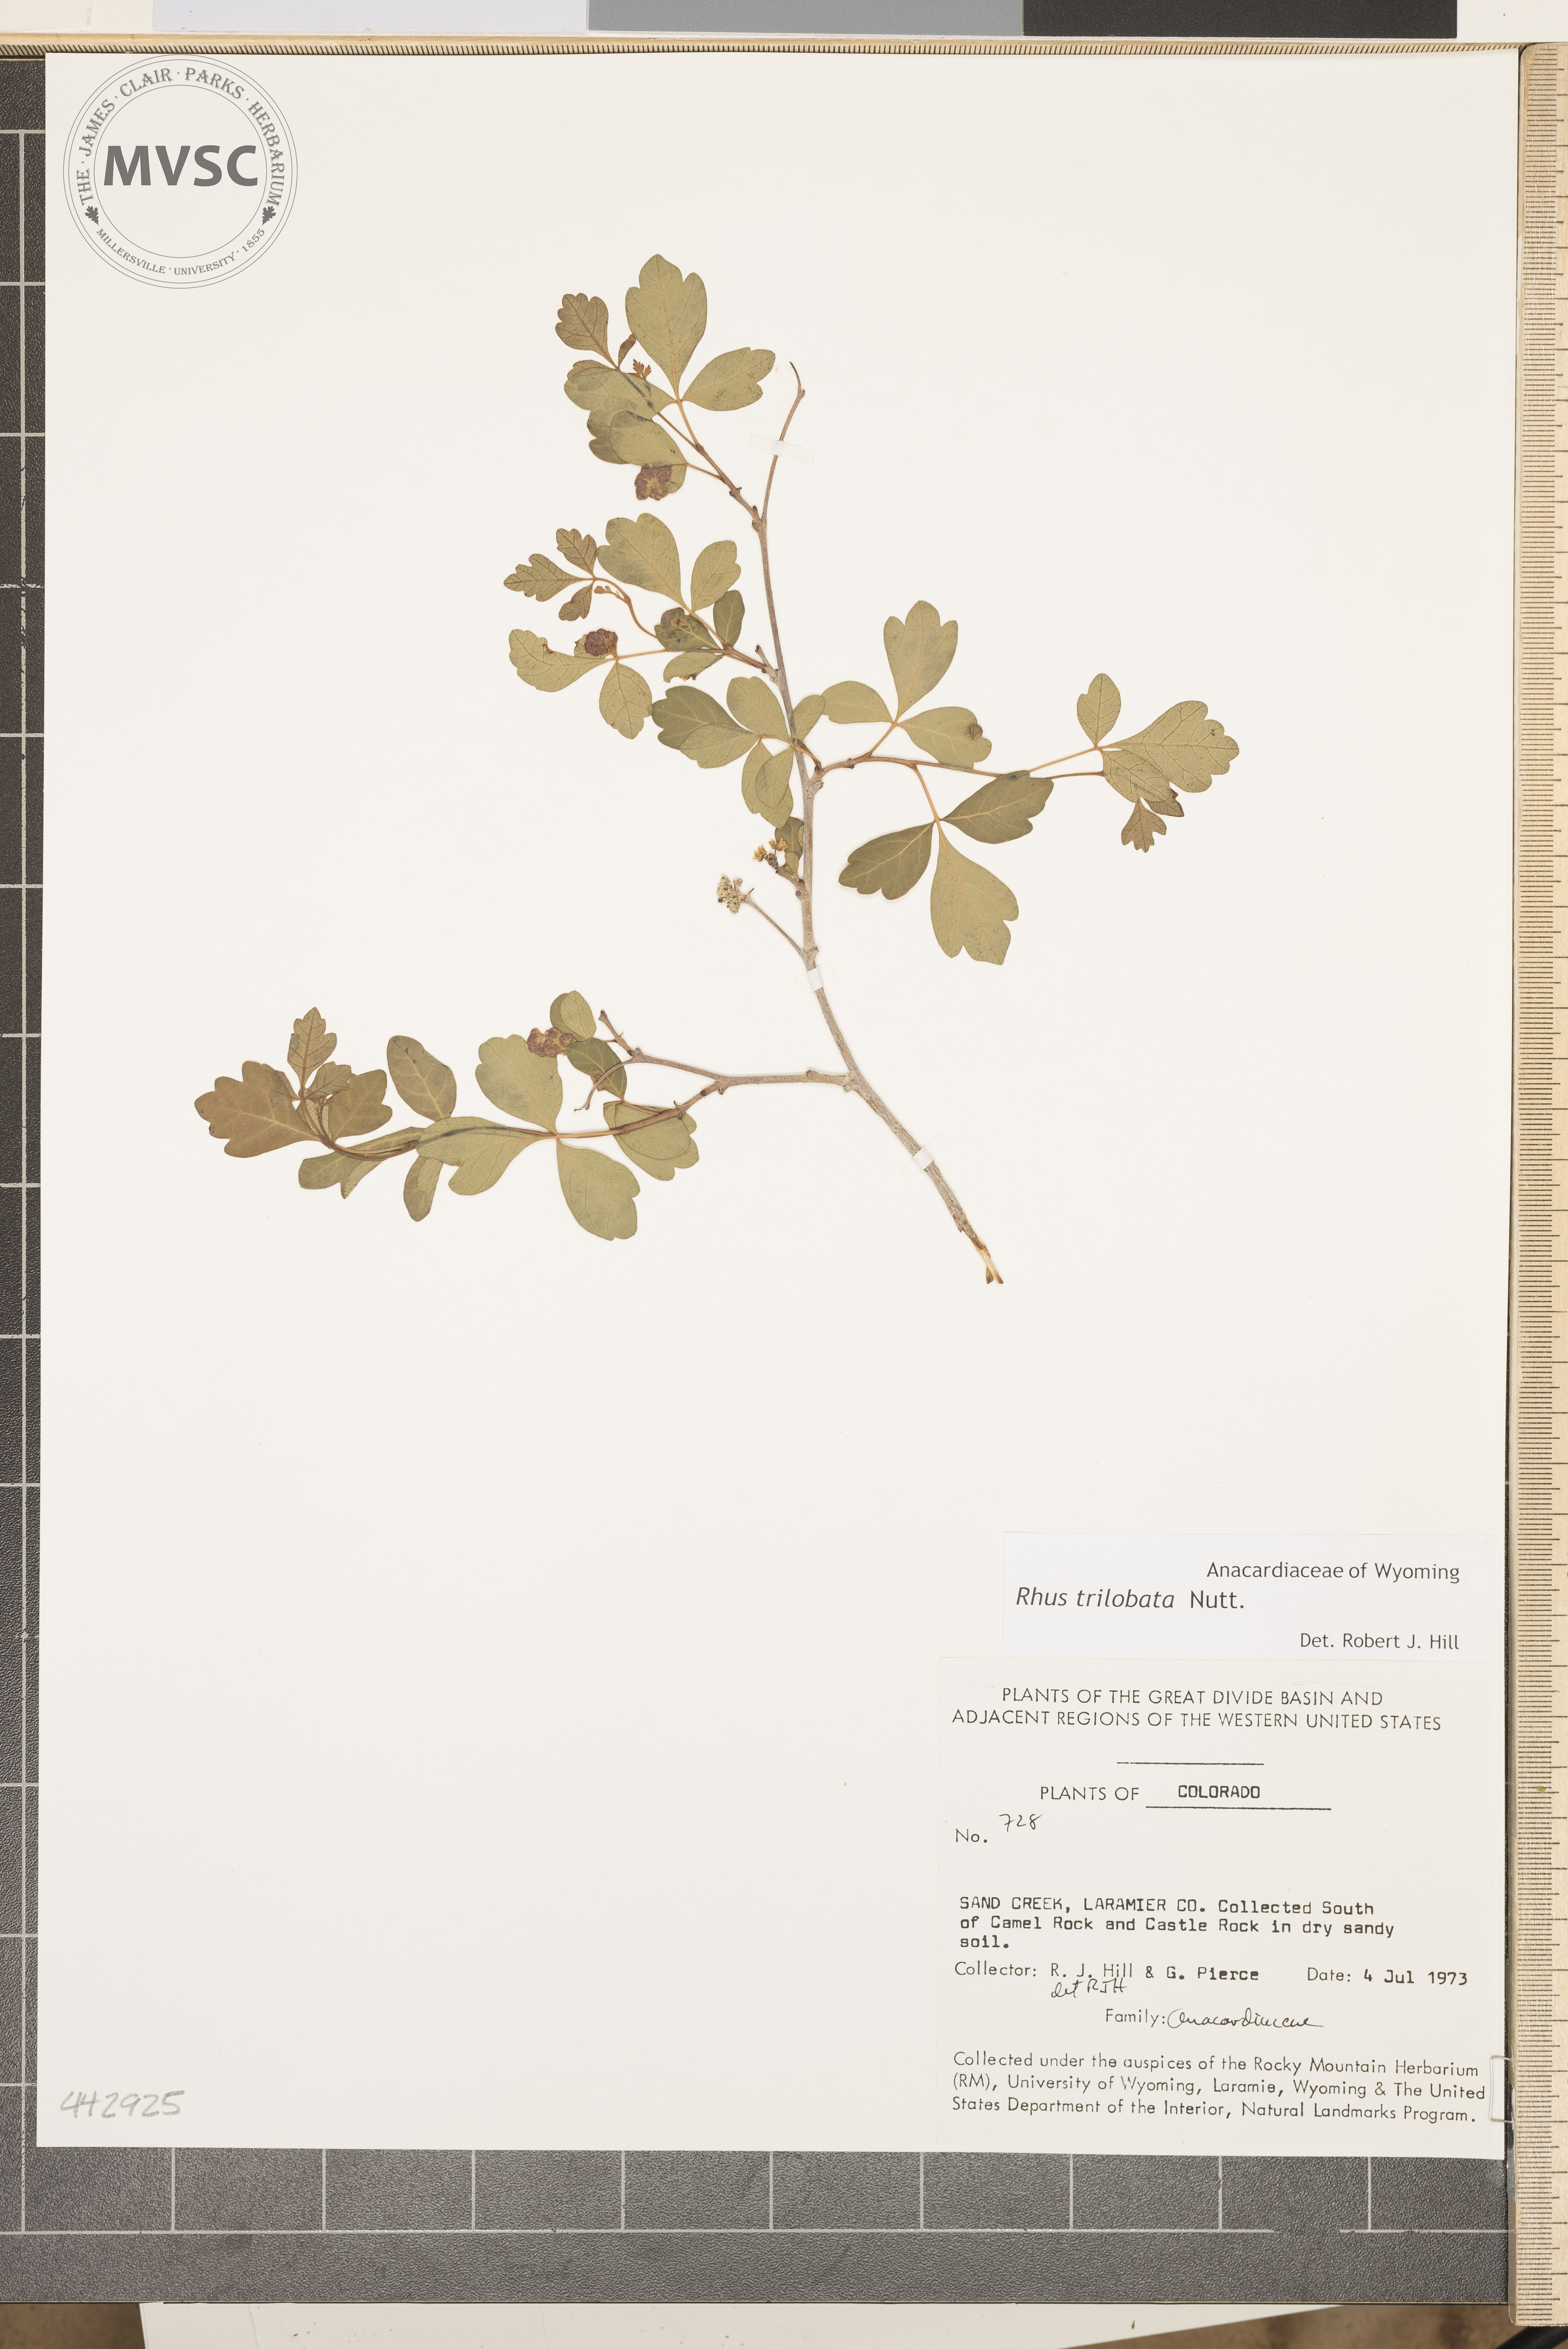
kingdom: Plantae
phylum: Tracheophyta
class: Magnoliopsida
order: Sapindales
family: Anacardiaceae
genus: Rhus
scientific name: Rhus trilobata
